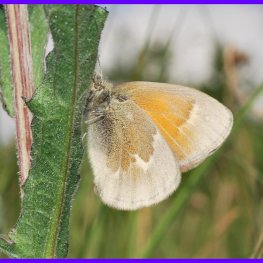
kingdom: Animalia
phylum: Arthropoda
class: Insecta
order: Lepidoptera
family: Nymphalidae
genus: Coenonympha
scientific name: Coenonympha tullia
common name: Large Heath
